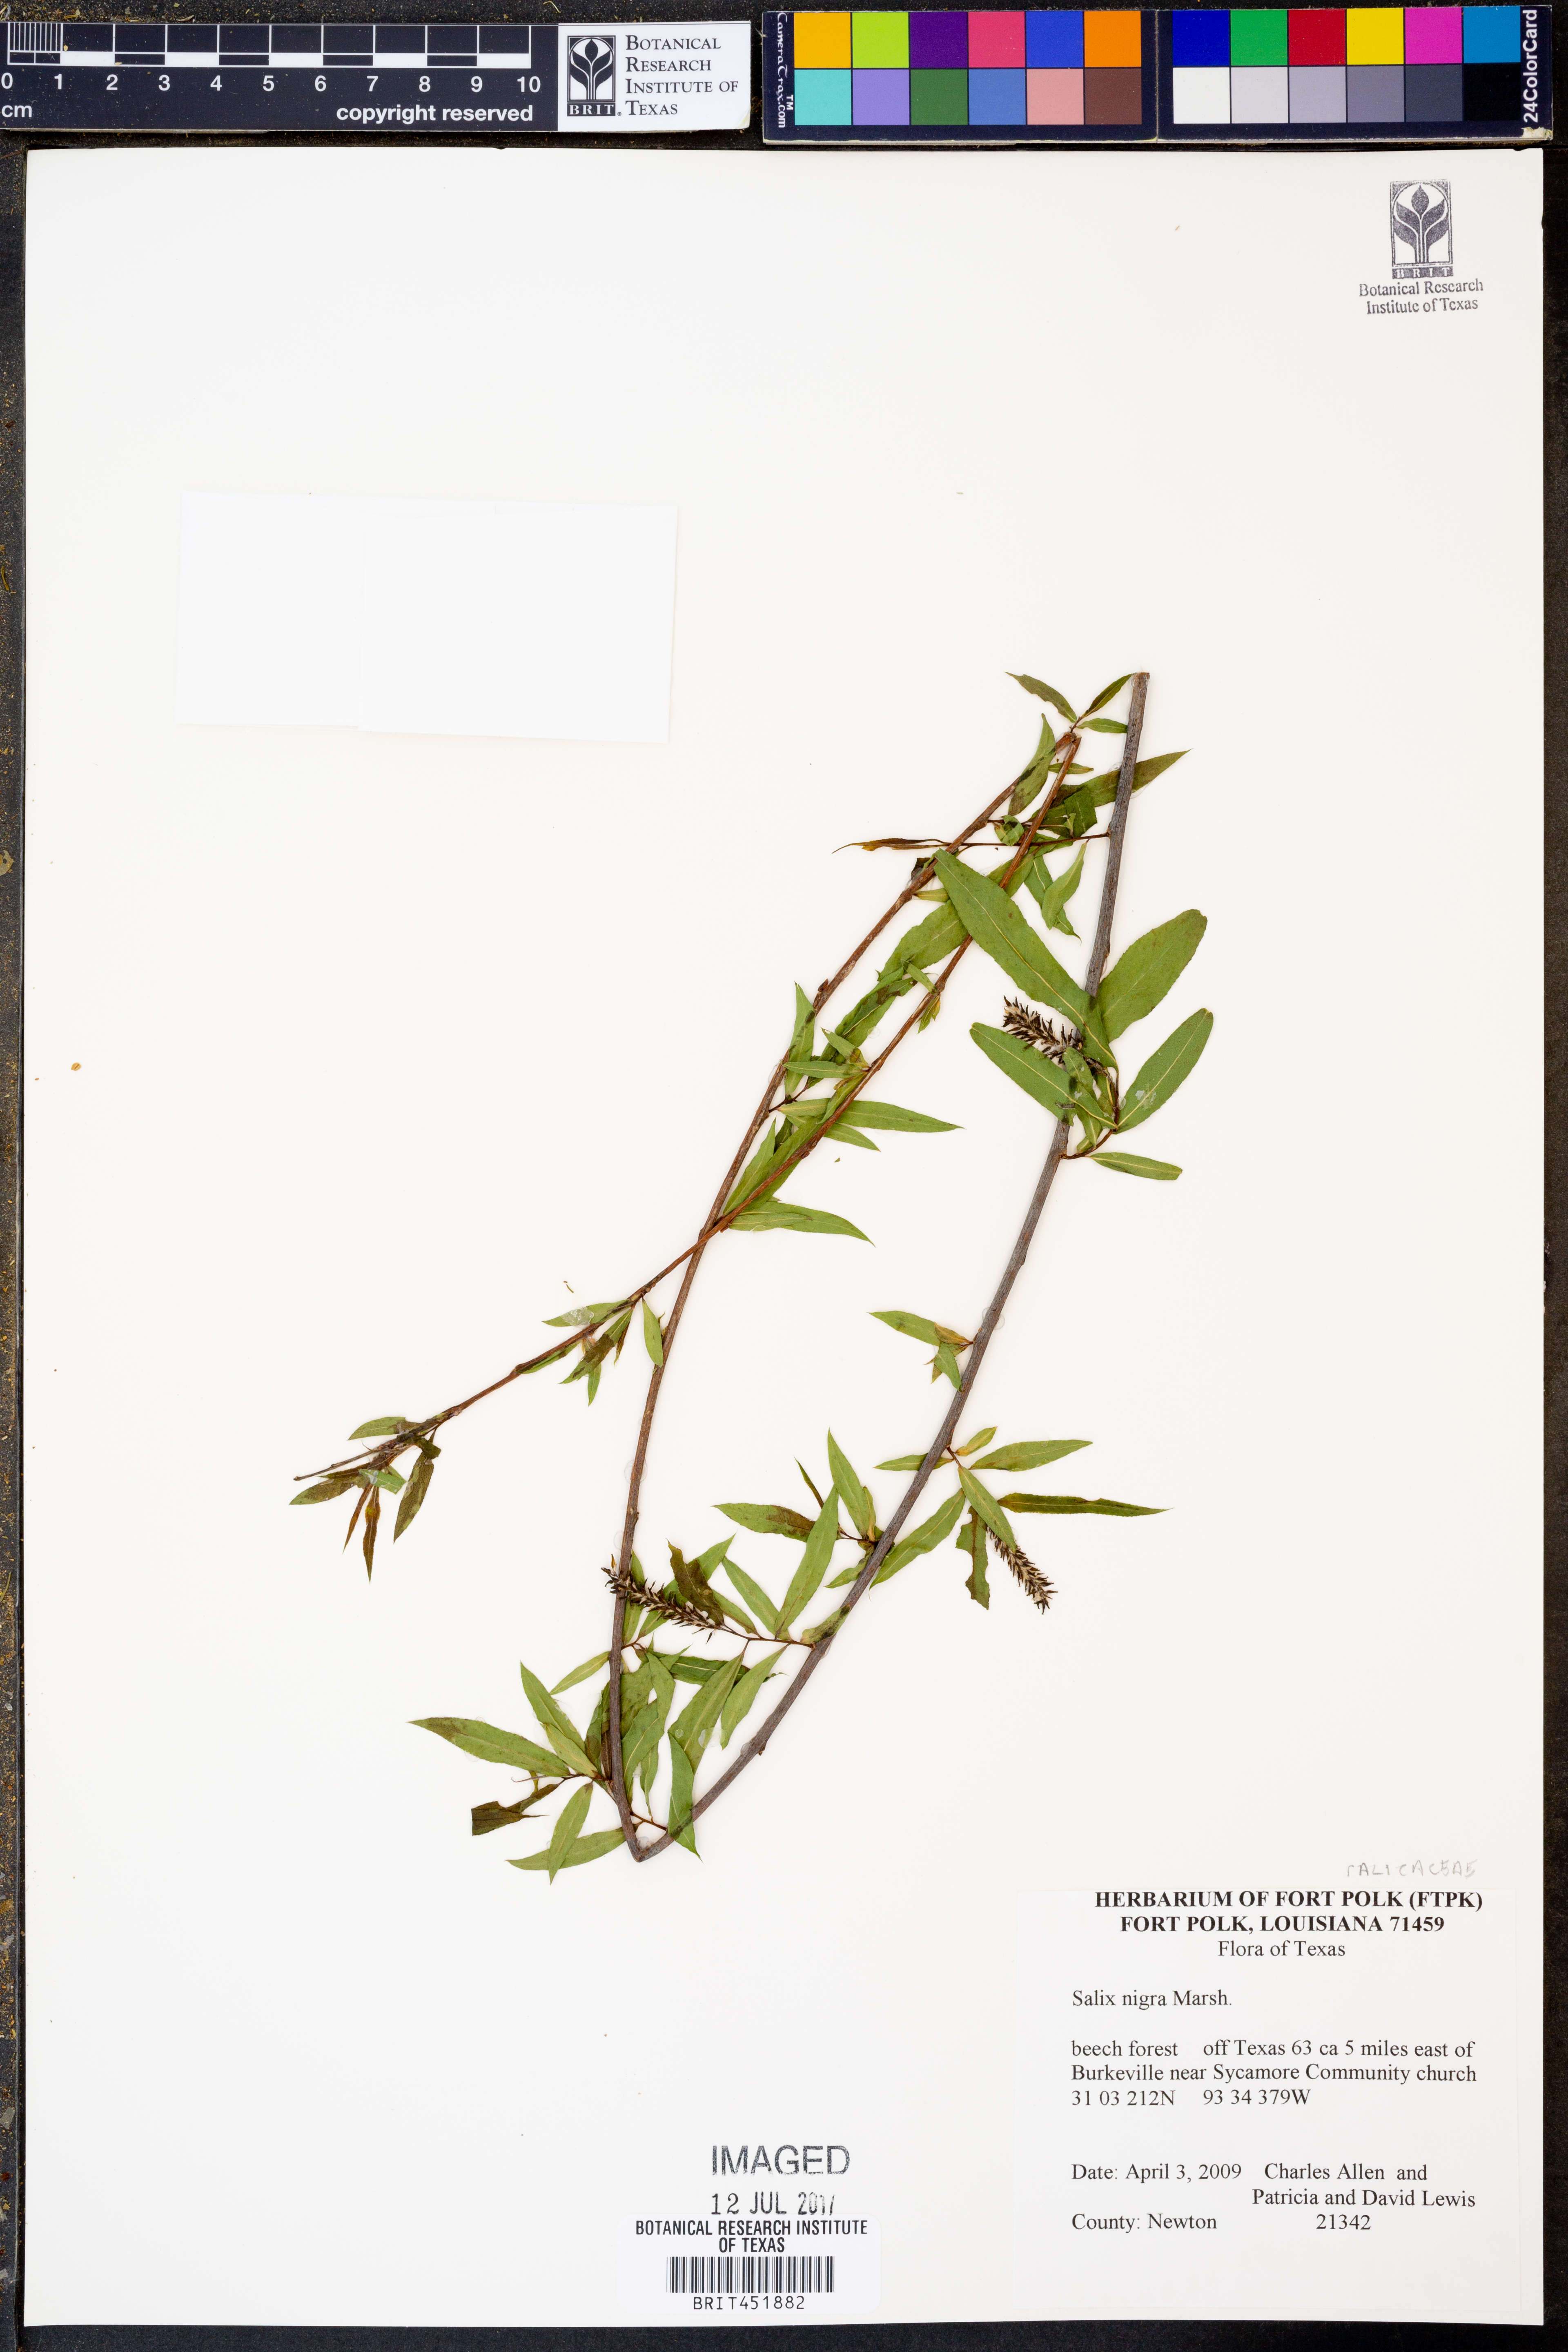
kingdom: Plantae
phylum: Tracheophyta
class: Magnoliopsida
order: Malpighiales
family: Salicaceae
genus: Salix
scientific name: Salix nigra
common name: Black willow
